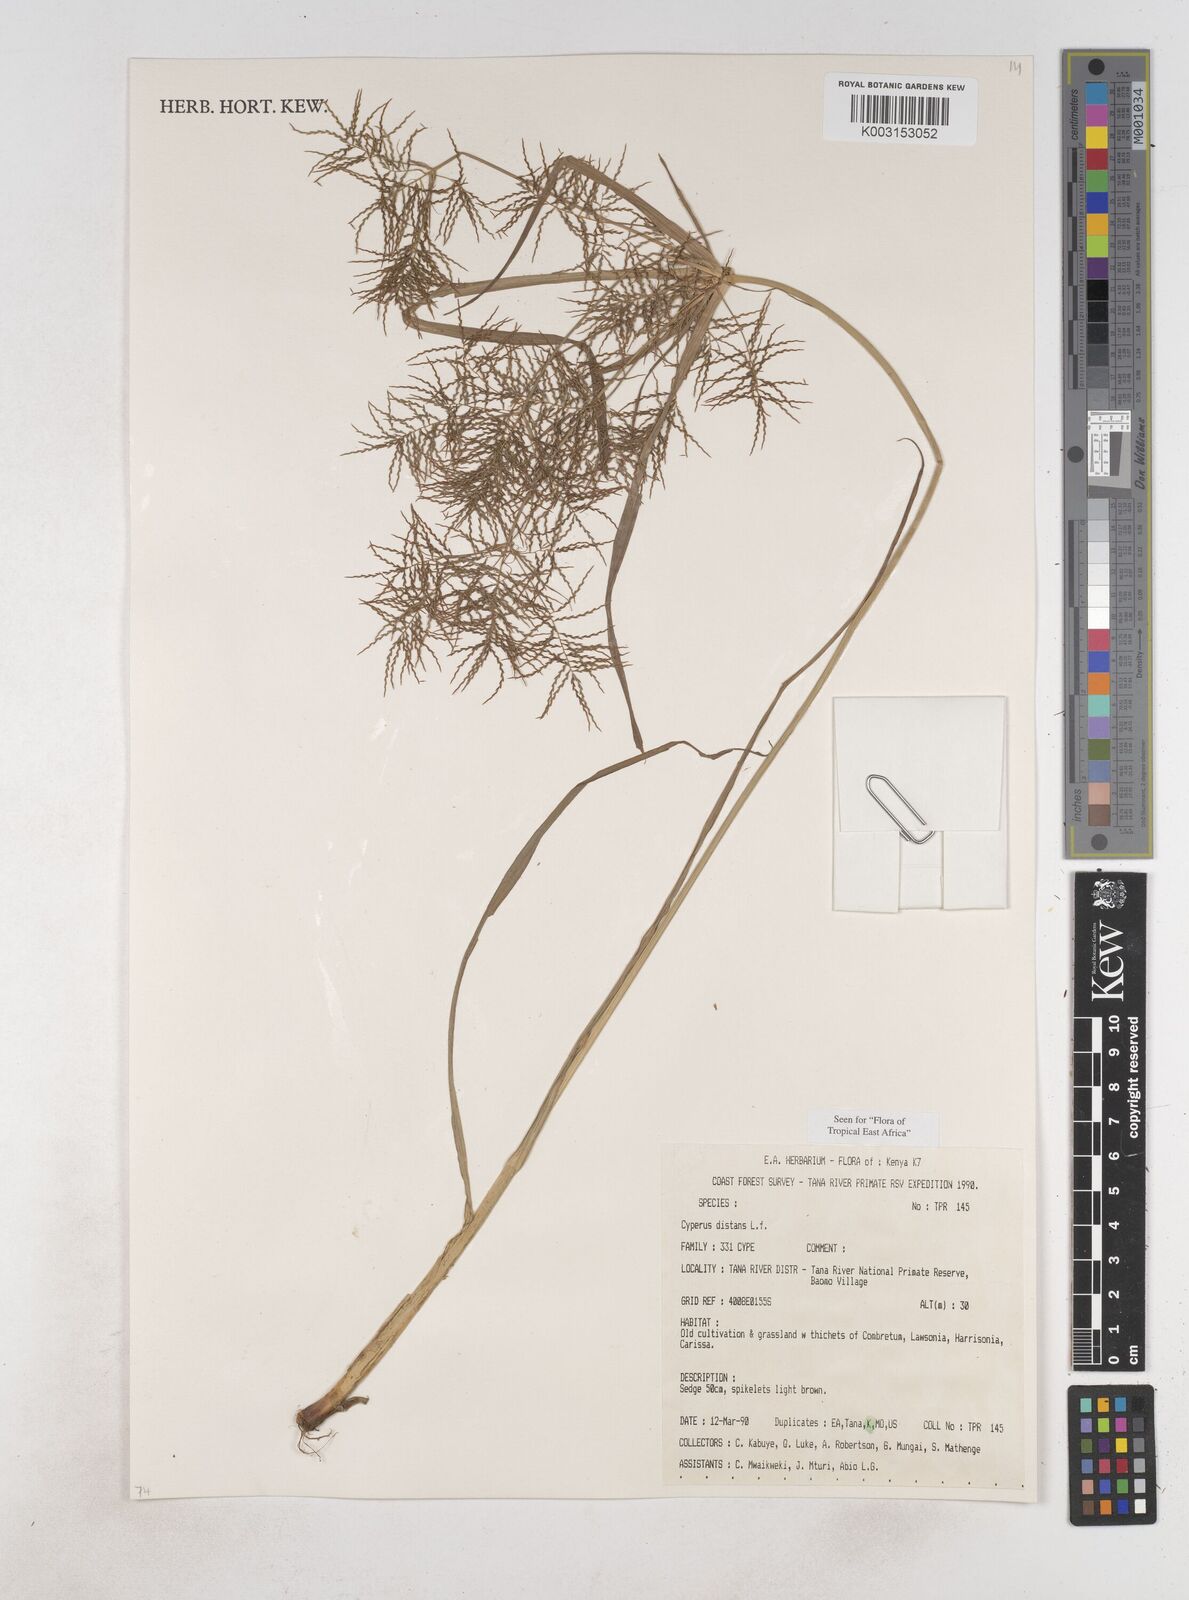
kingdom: Plantae
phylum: Tracheophyta
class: Liliopsida
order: Poales
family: Cyperaceae
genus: Cyperus
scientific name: Cyperus distans
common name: Slender cyperus
